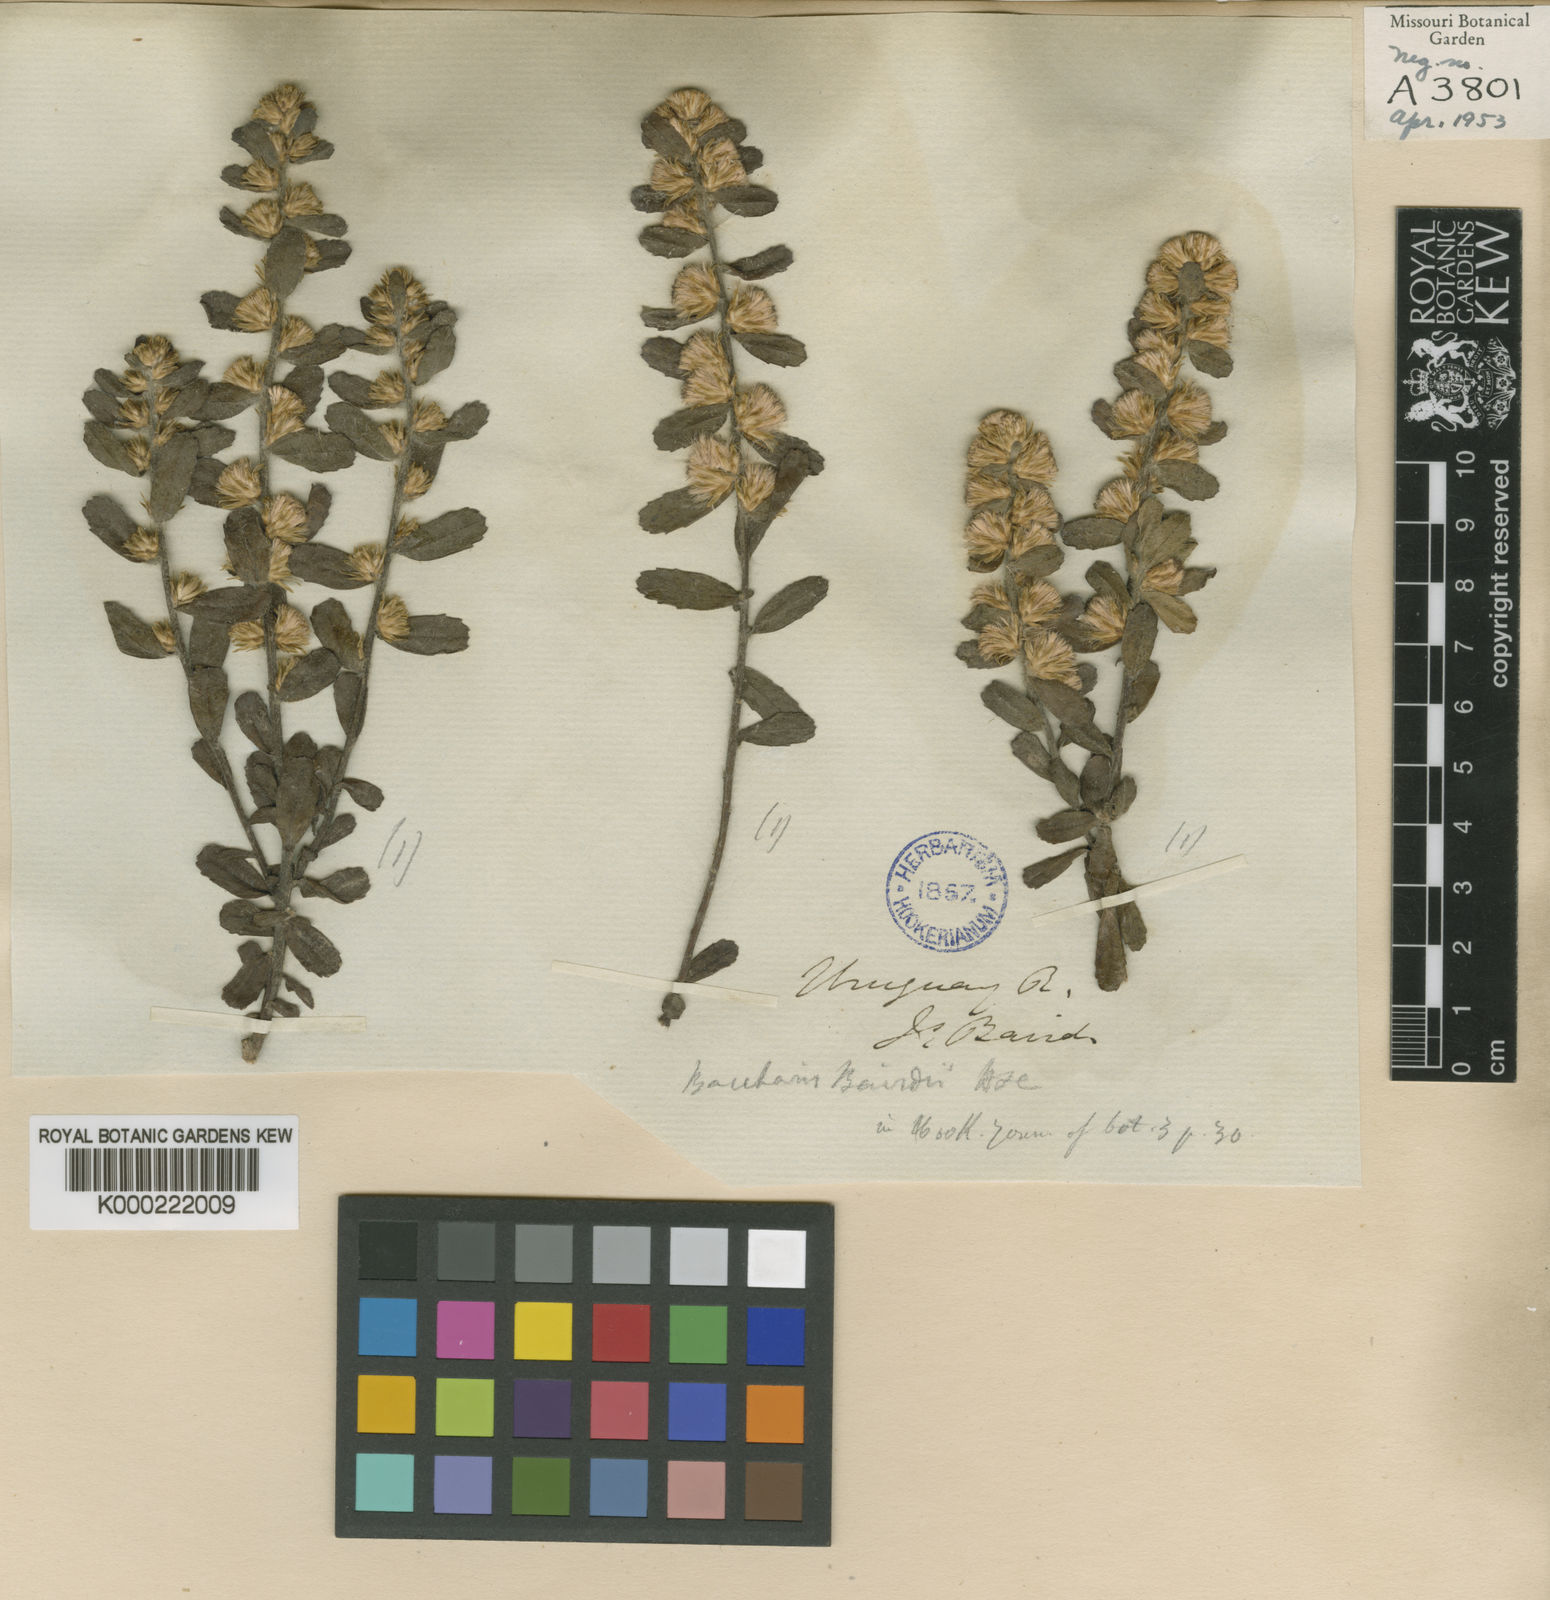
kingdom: Plantae
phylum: Tracheophyta
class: Magnoliopsida
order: Asterales
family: Asteraceae
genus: Baccharis
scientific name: Baccharis caprariifolia
